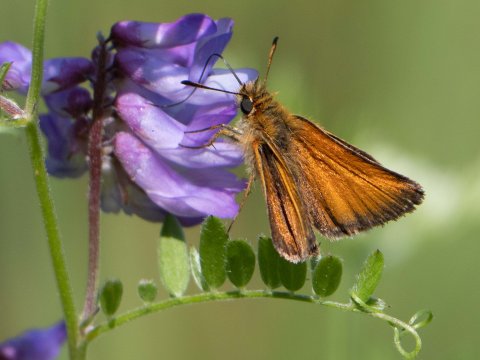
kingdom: Animalia
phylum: Arthropoda
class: Insecta
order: Lepidoptera
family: Hesperiidae
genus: Thymelicus
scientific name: Thymelicus lineola
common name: European Skipper
